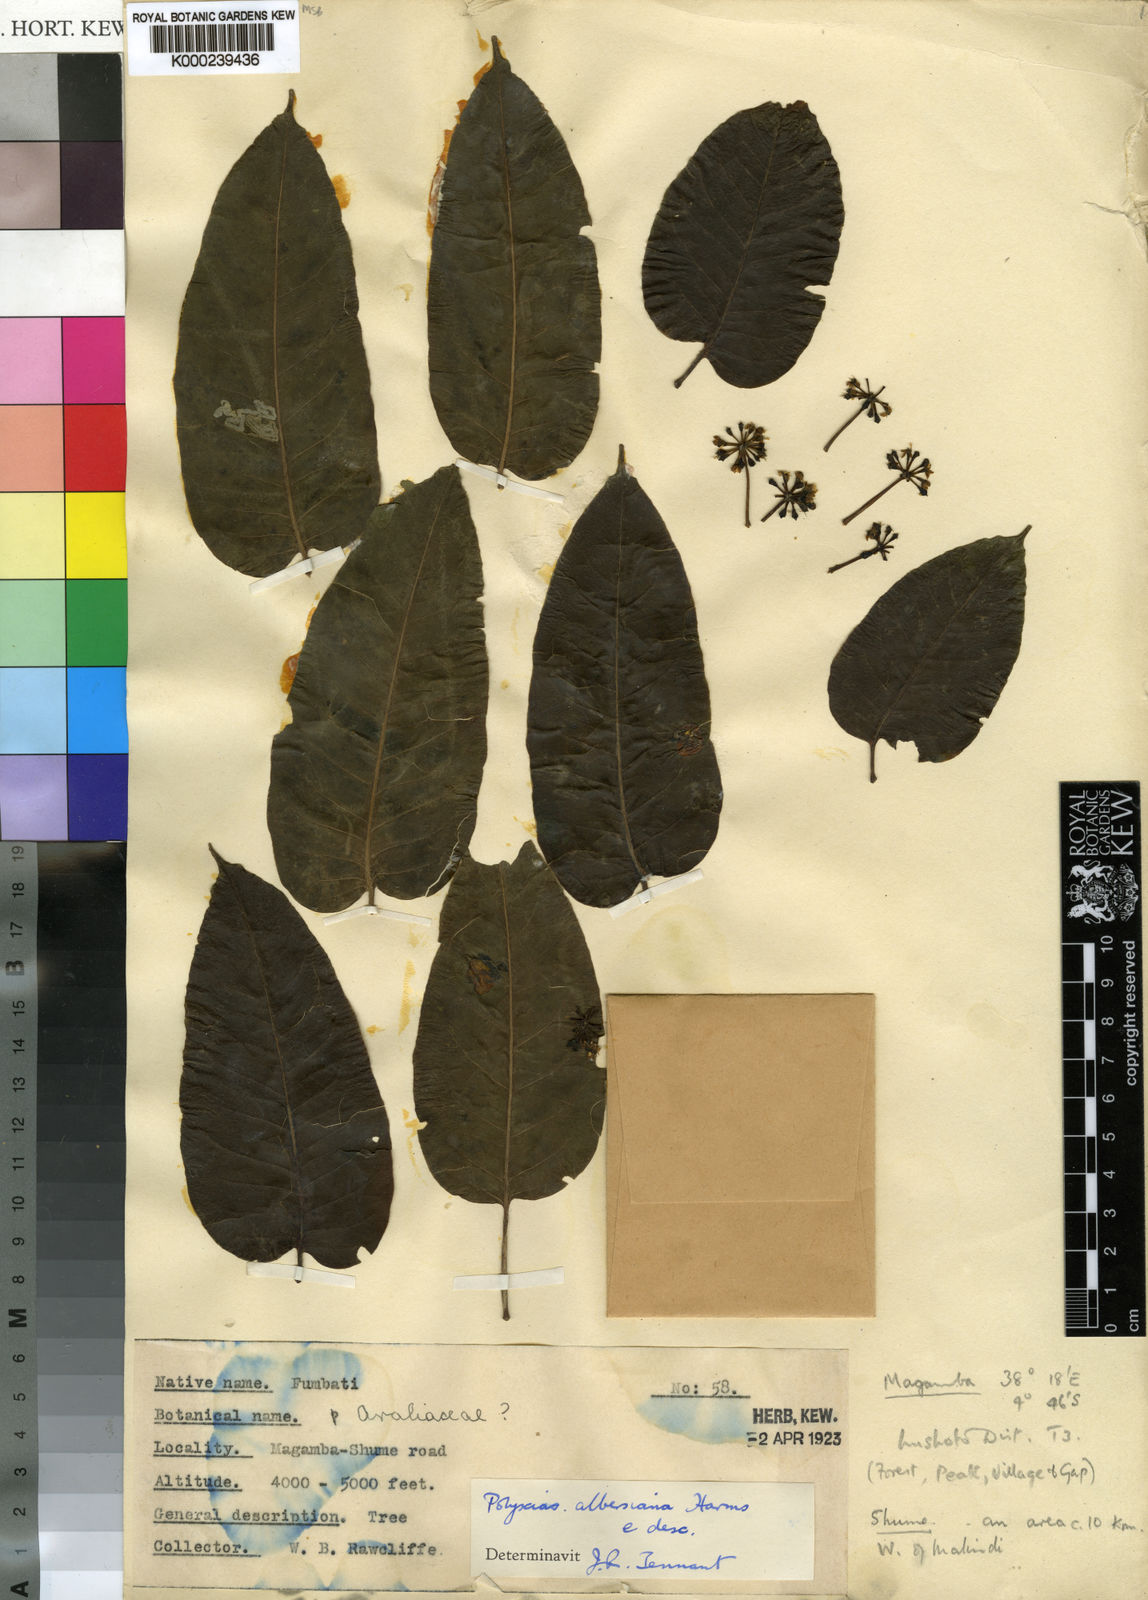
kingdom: Plantae
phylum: Tracheophyta
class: Magnoliopsida
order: Apiales
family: Araliaceae
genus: Polyscias
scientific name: Polyscias albersiana
